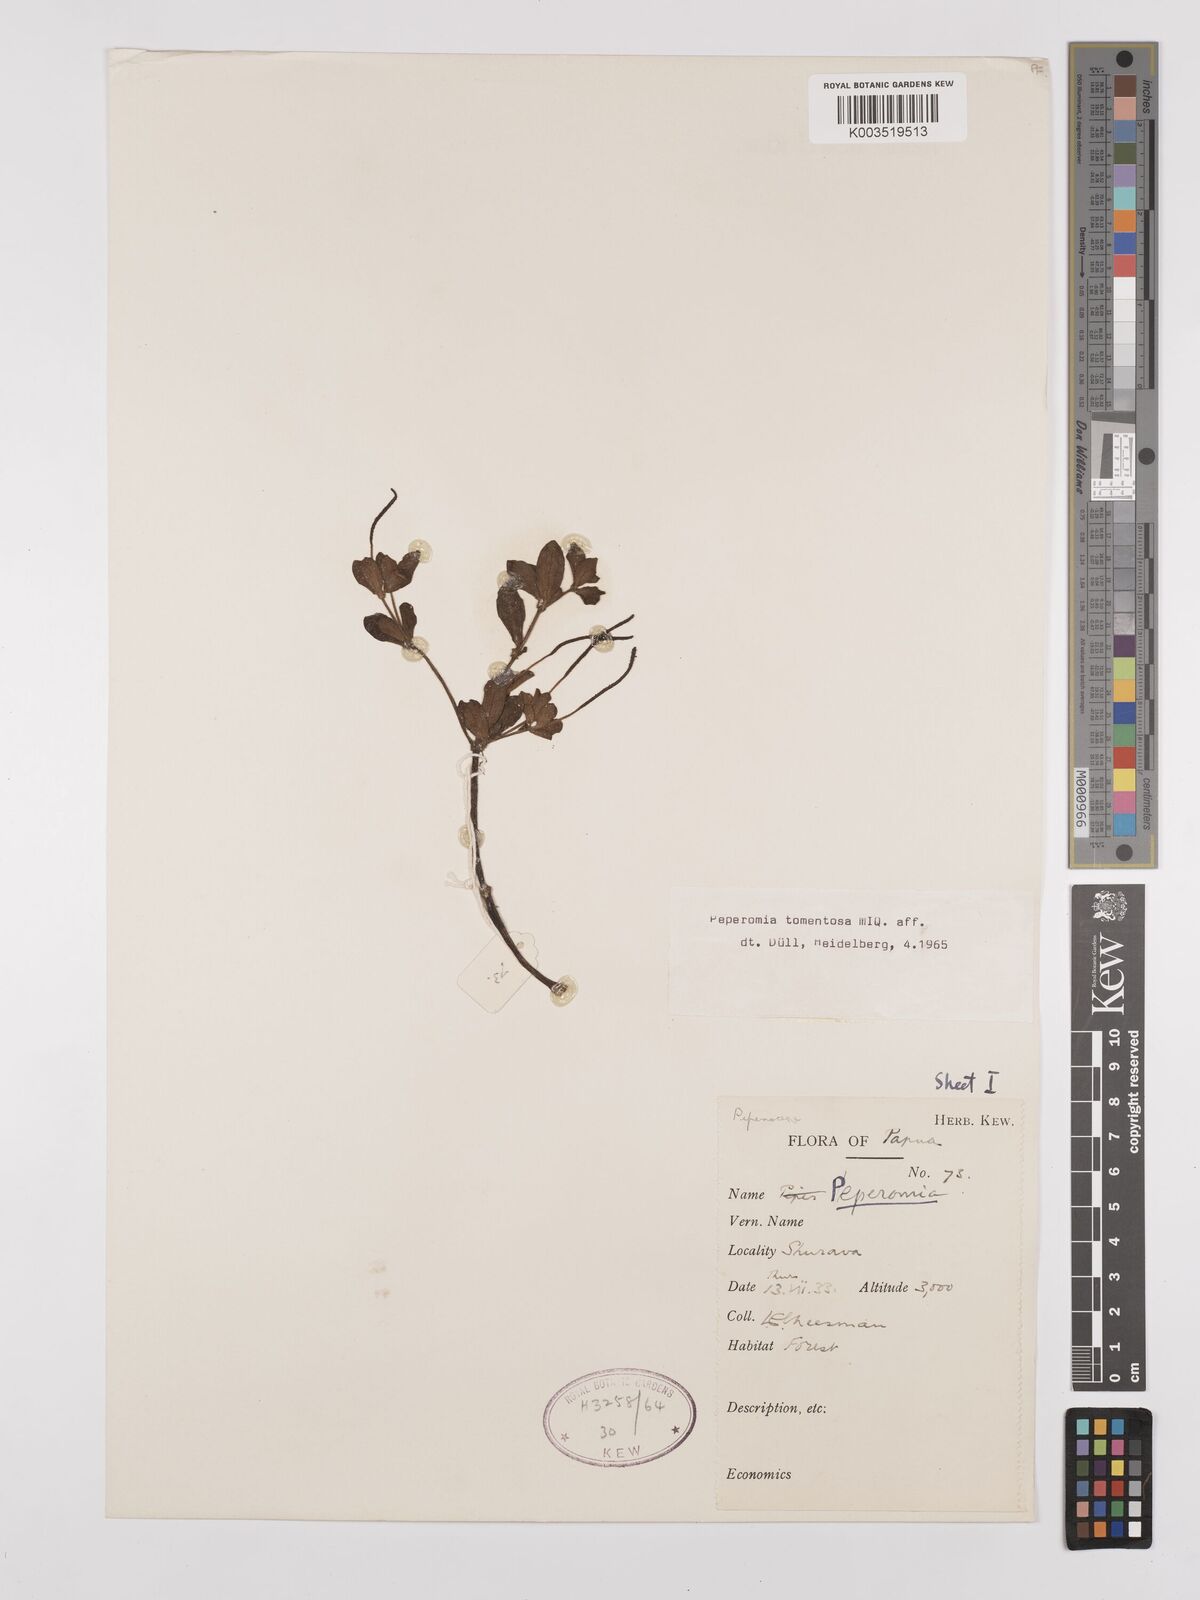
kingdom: Plantae
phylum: Tracheophyta
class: Magnoliopsida
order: Piperales
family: Piperaceae
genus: Peperomia
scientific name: Peperomia tomentosa
